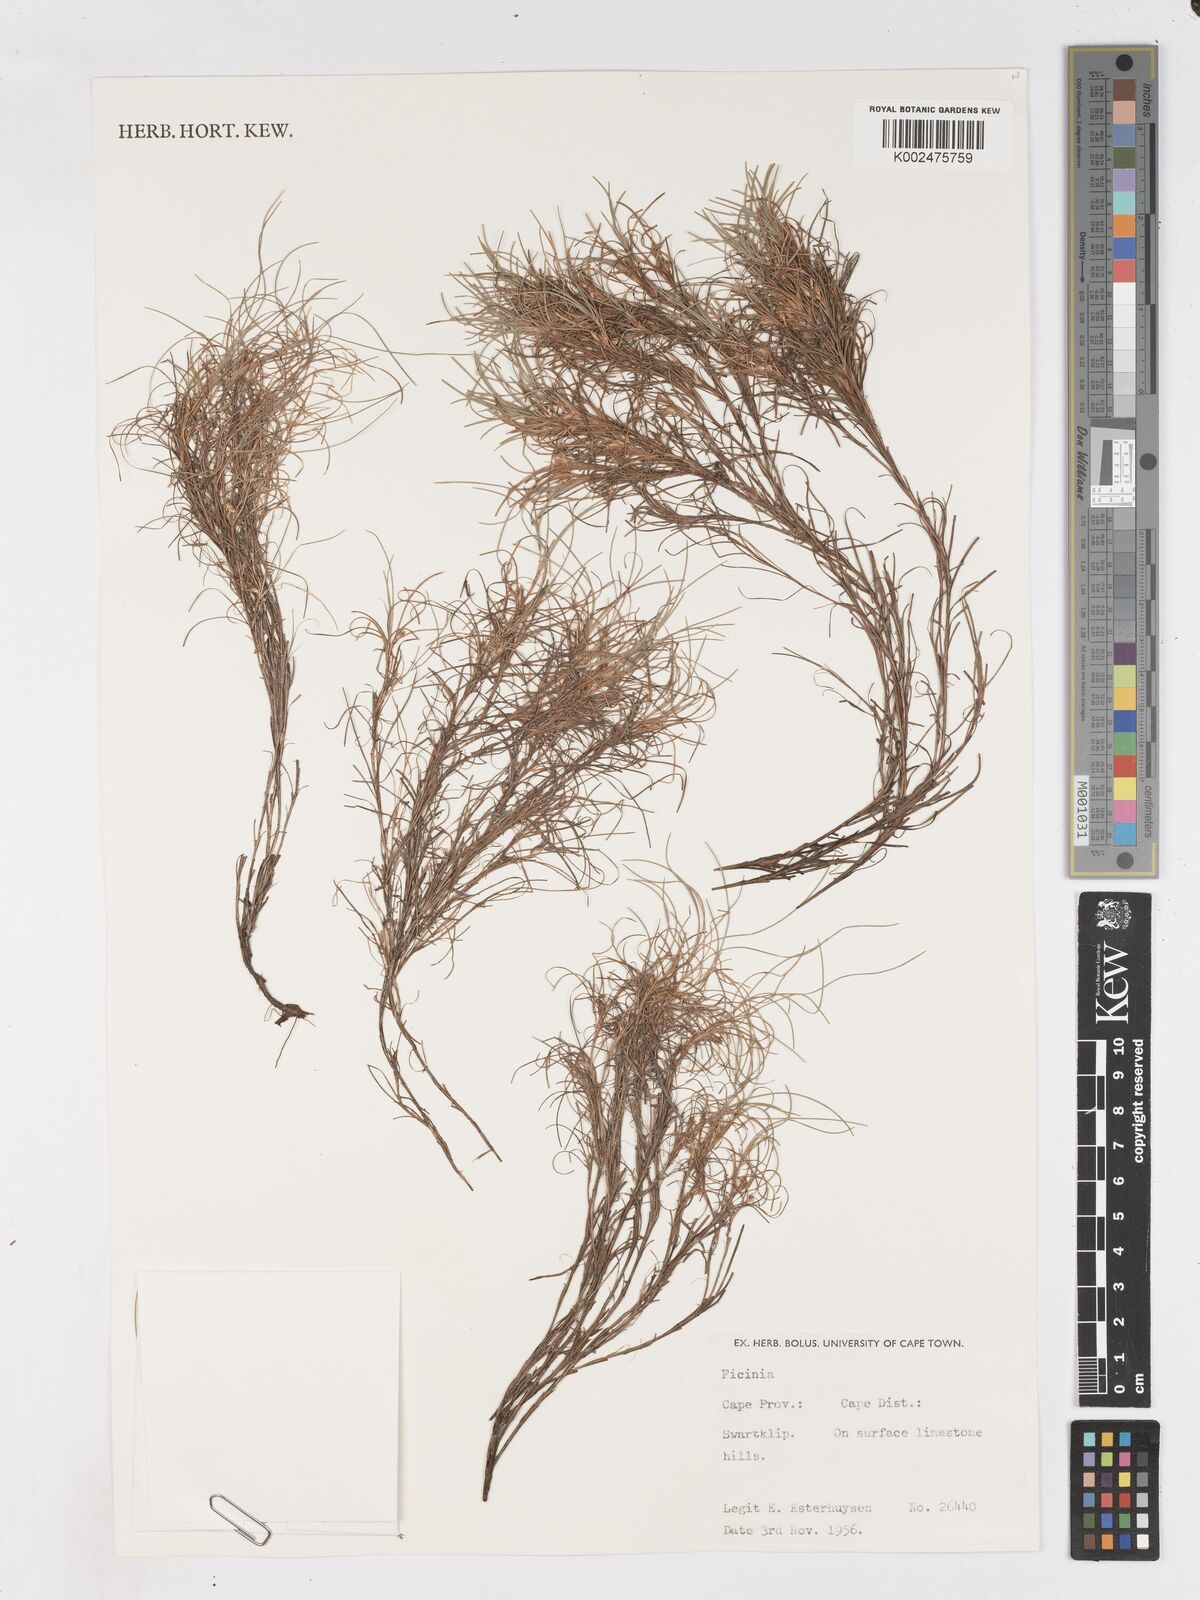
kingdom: Plantae
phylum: Tracheophyta
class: Liliopsida
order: Poales
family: Cyperaceae
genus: Ficinia
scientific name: Ficinia ramosissima
